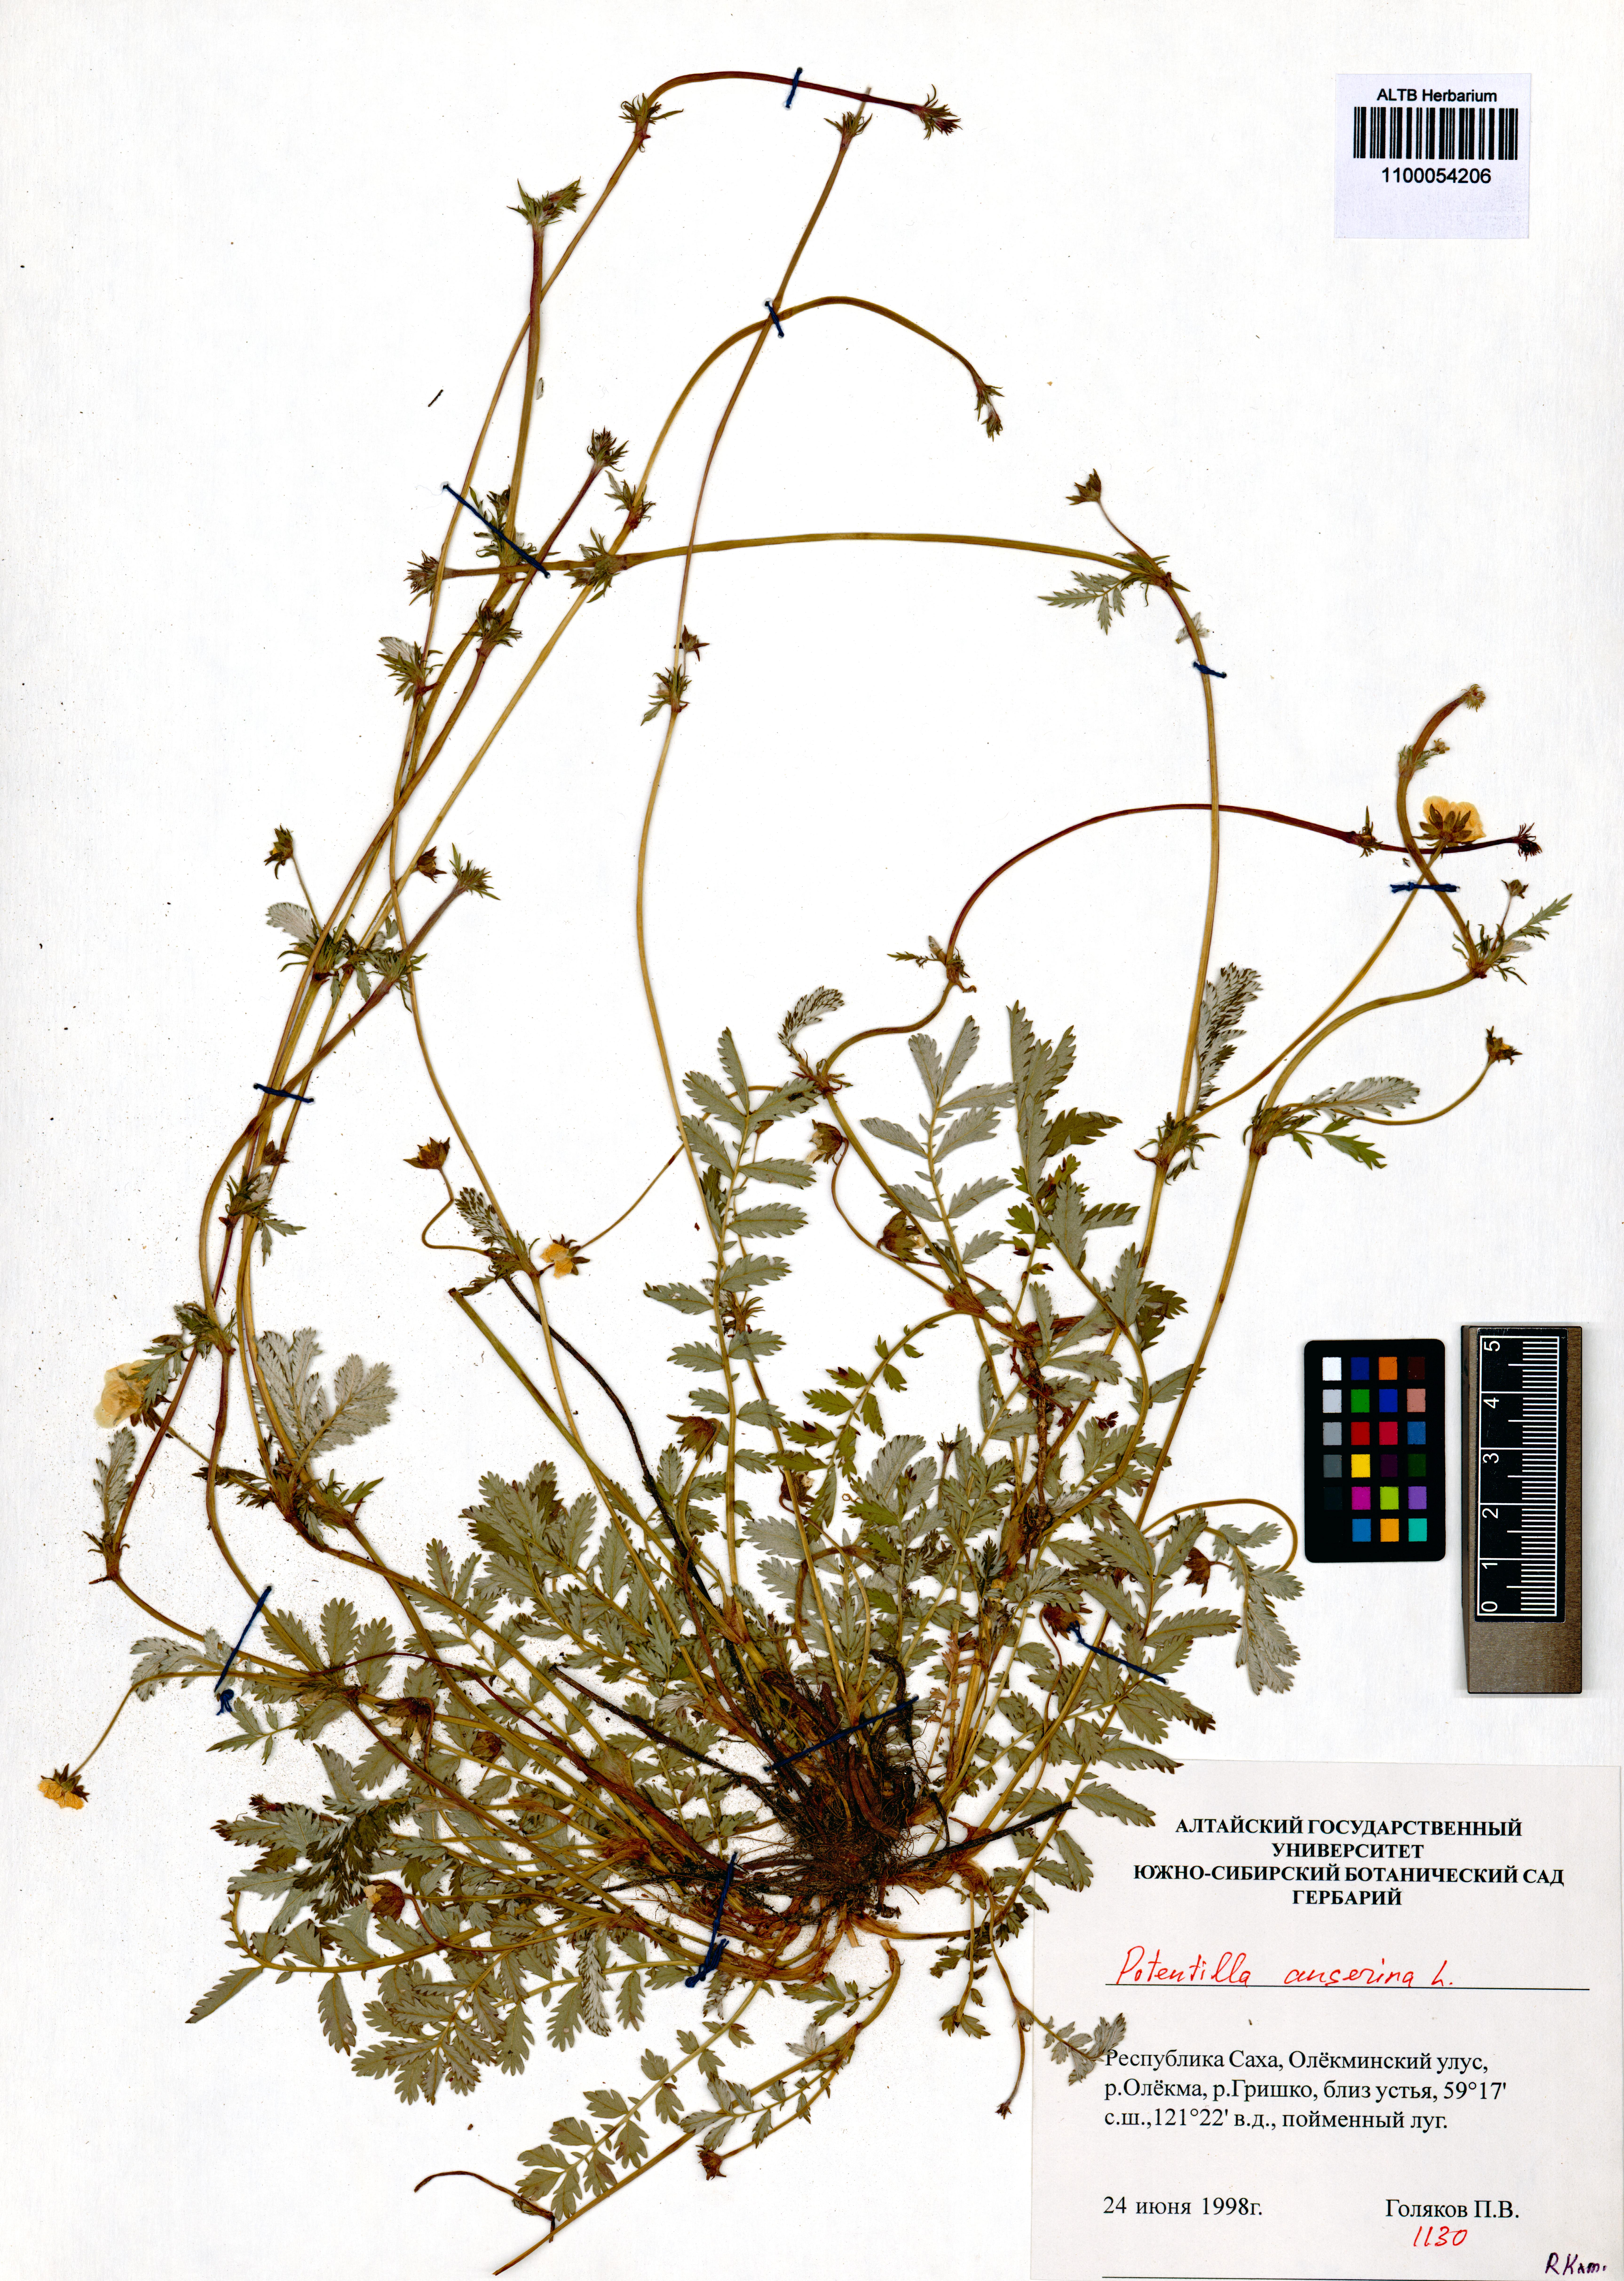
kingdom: Plantae
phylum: Tracheophyta
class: Magnoliopsida
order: Rosales
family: Rosaceae
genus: Argentina
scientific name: Argentina anserina
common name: Common silverweed
